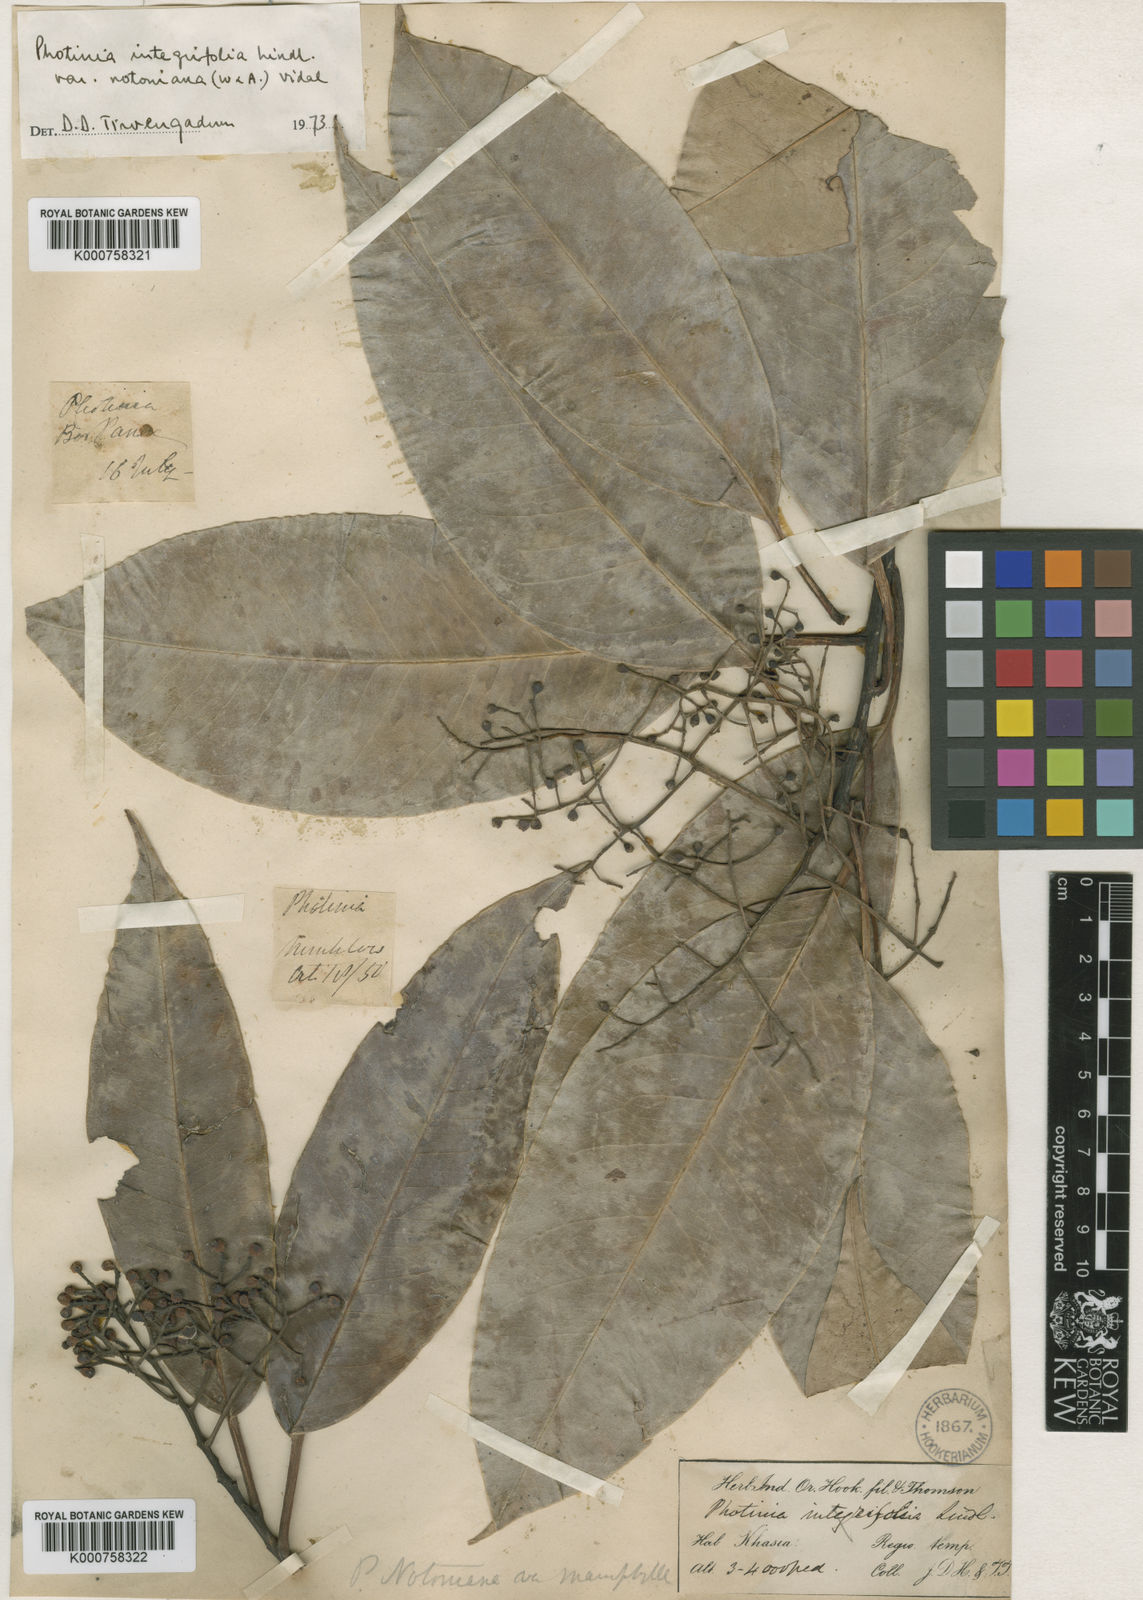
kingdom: Plantae
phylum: Tracheophyta
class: Magnoliopsida
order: Rosales
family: Rosaceae
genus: Photinia
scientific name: Photinia integrifolia
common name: Himalayan chokeberry
